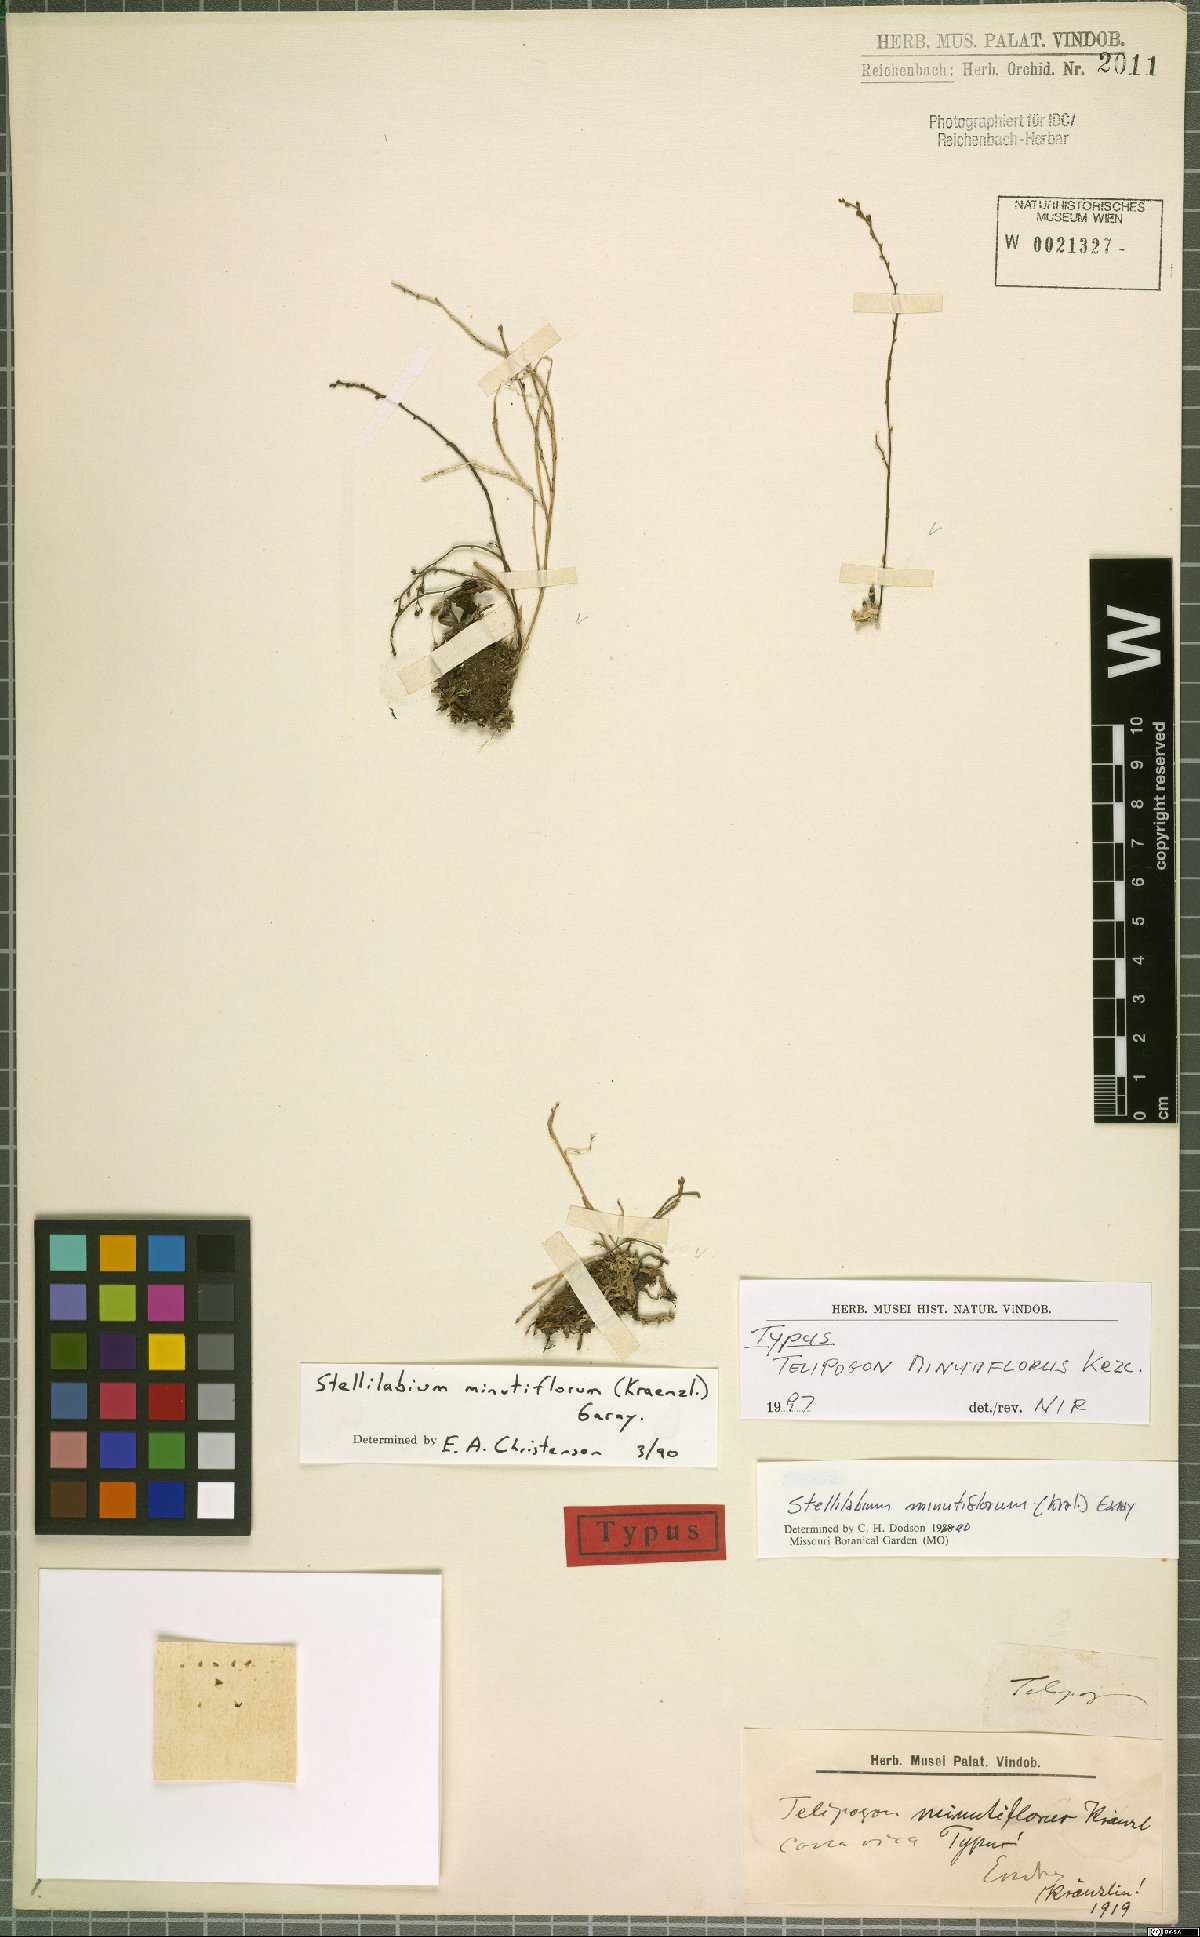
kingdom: Plantae
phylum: Tracheophyta
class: Liliopsida
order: Asparagales
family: Orchidaceae
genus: Telipogon
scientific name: Telipogon minutiflorus
